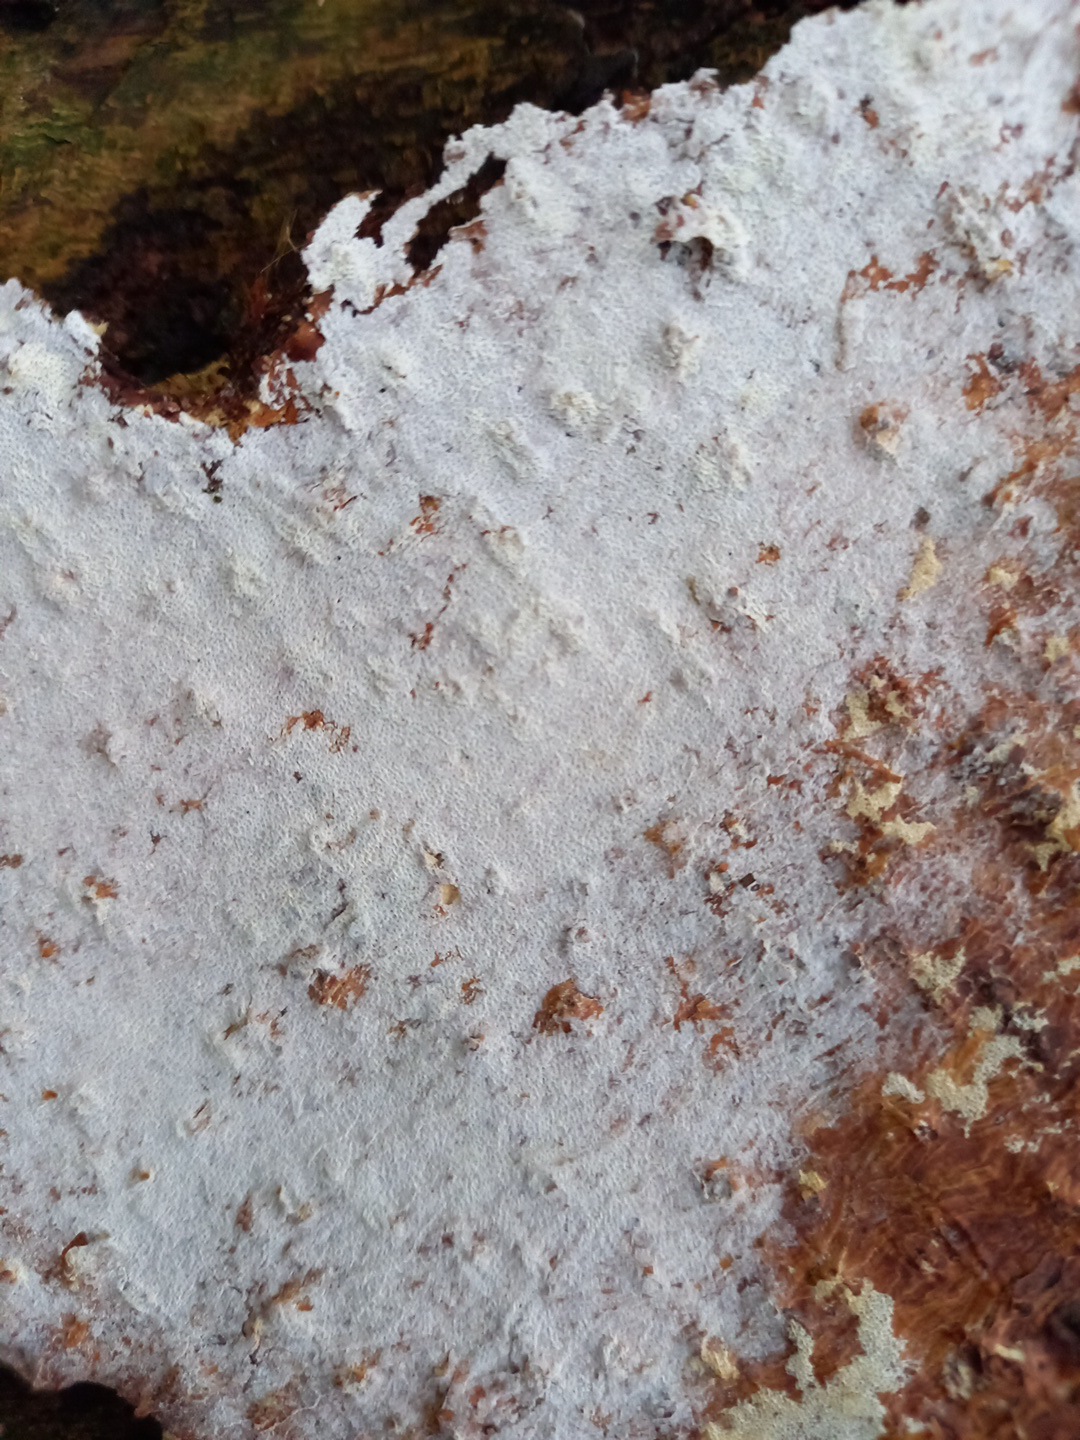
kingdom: Fungi
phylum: Basidiomycota
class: Agaricomycetes
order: Polyporales
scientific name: Polyporales
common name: poresvampordenen
